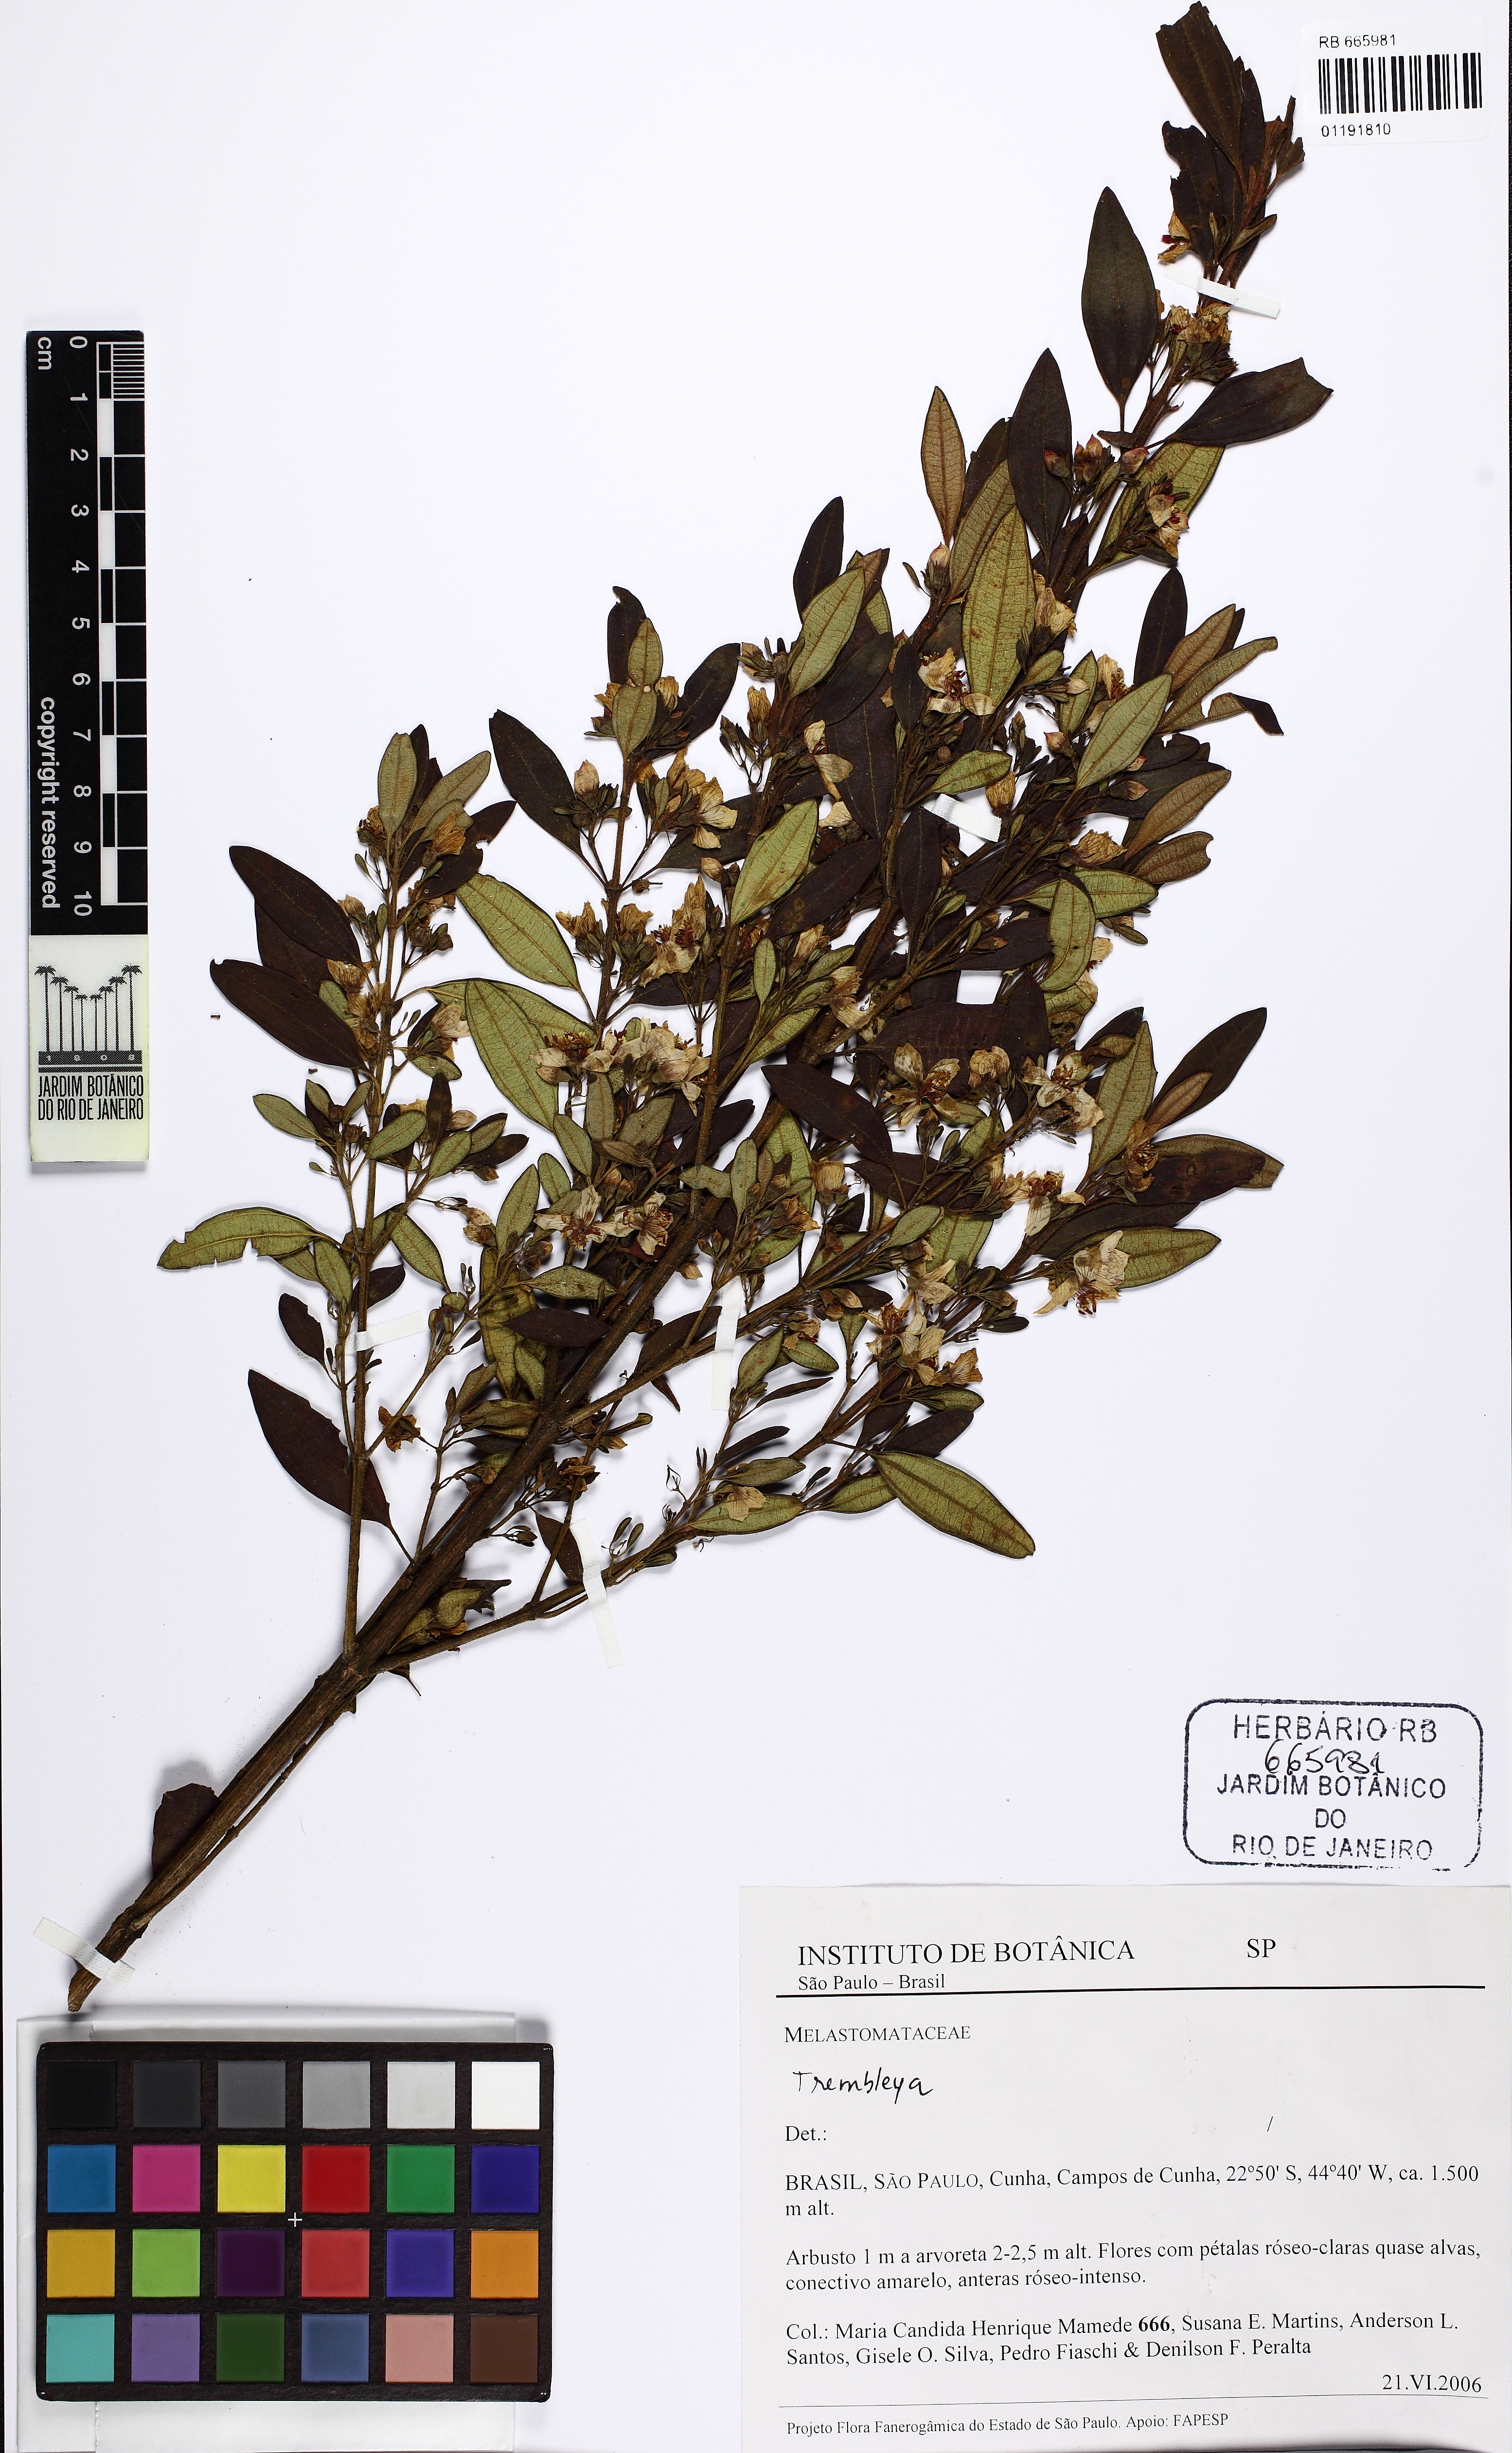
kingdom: Plantae
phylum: Tracheophyta
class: Magnoliopsida
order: Myrtales
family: Melastomataceae
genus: Microlicia
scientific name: Microlicia parviflora
